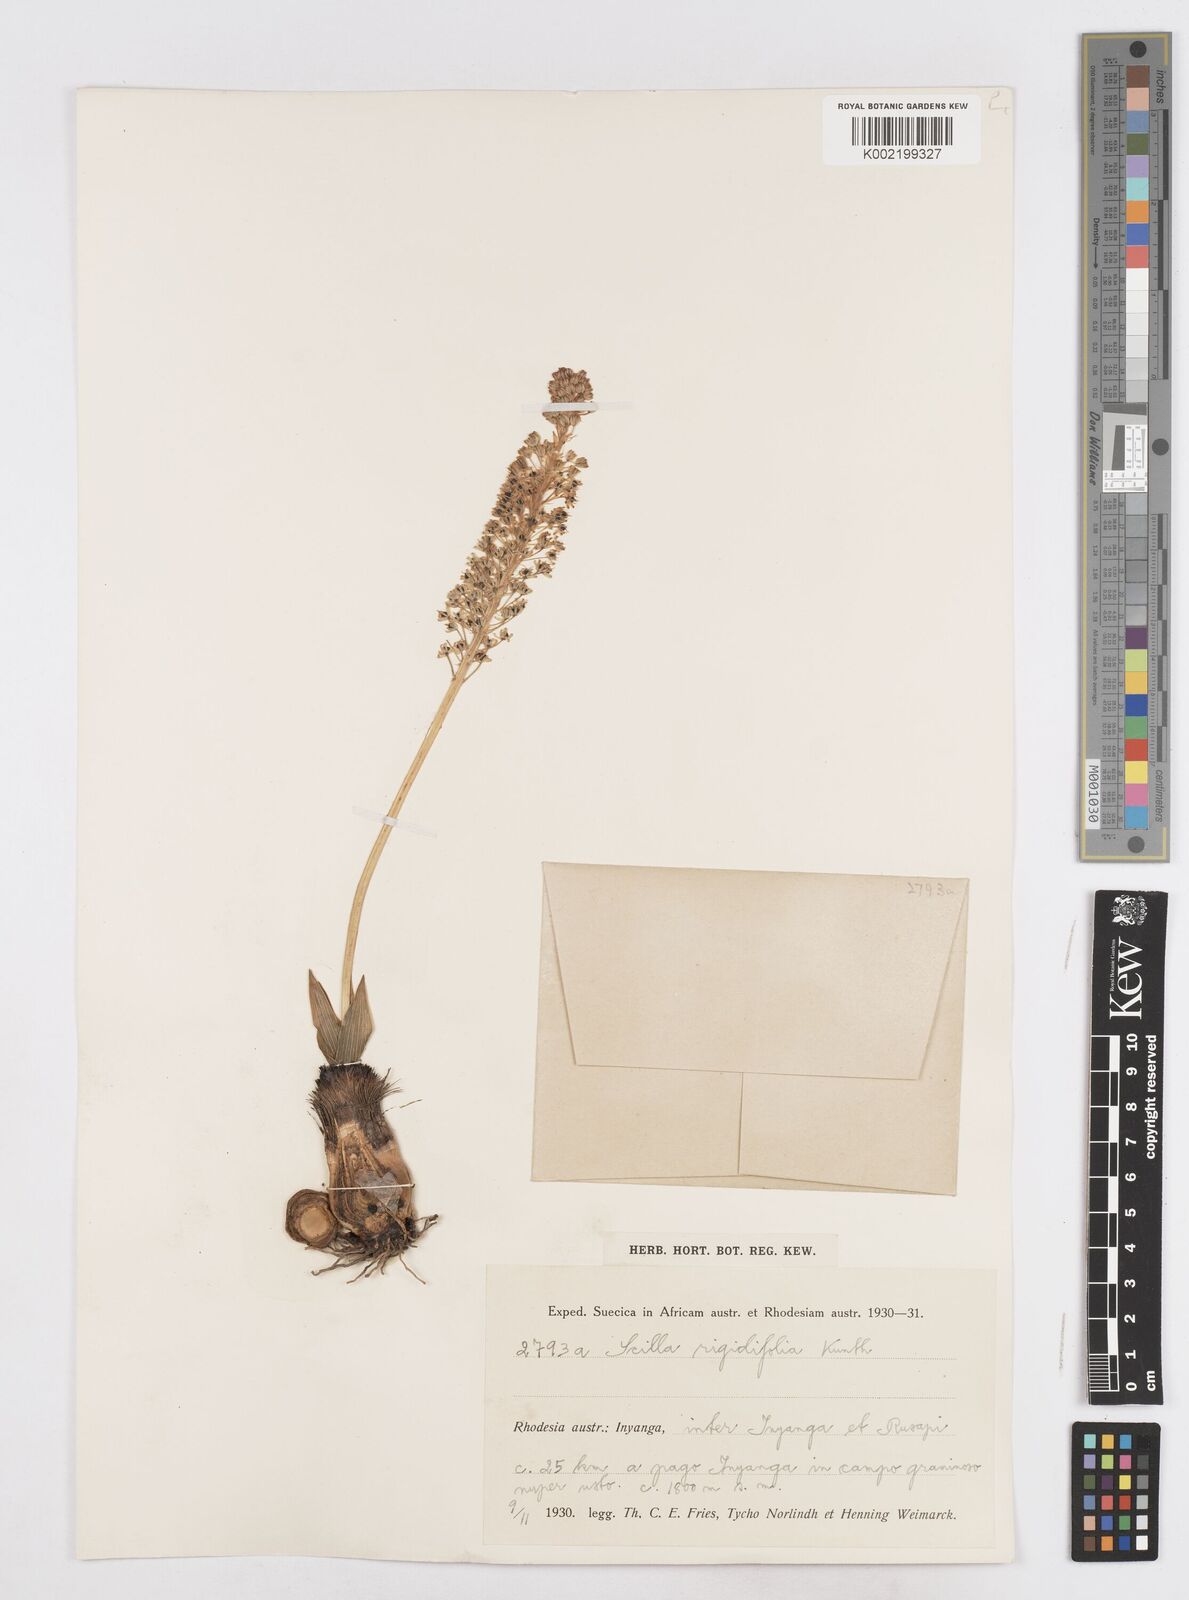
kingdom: Plantae
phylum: Tracheophyta
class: Liliopsida
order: Asparagales
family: Asparagaceae
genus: Schizocarphus
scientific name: Schizocarphus nervosus
